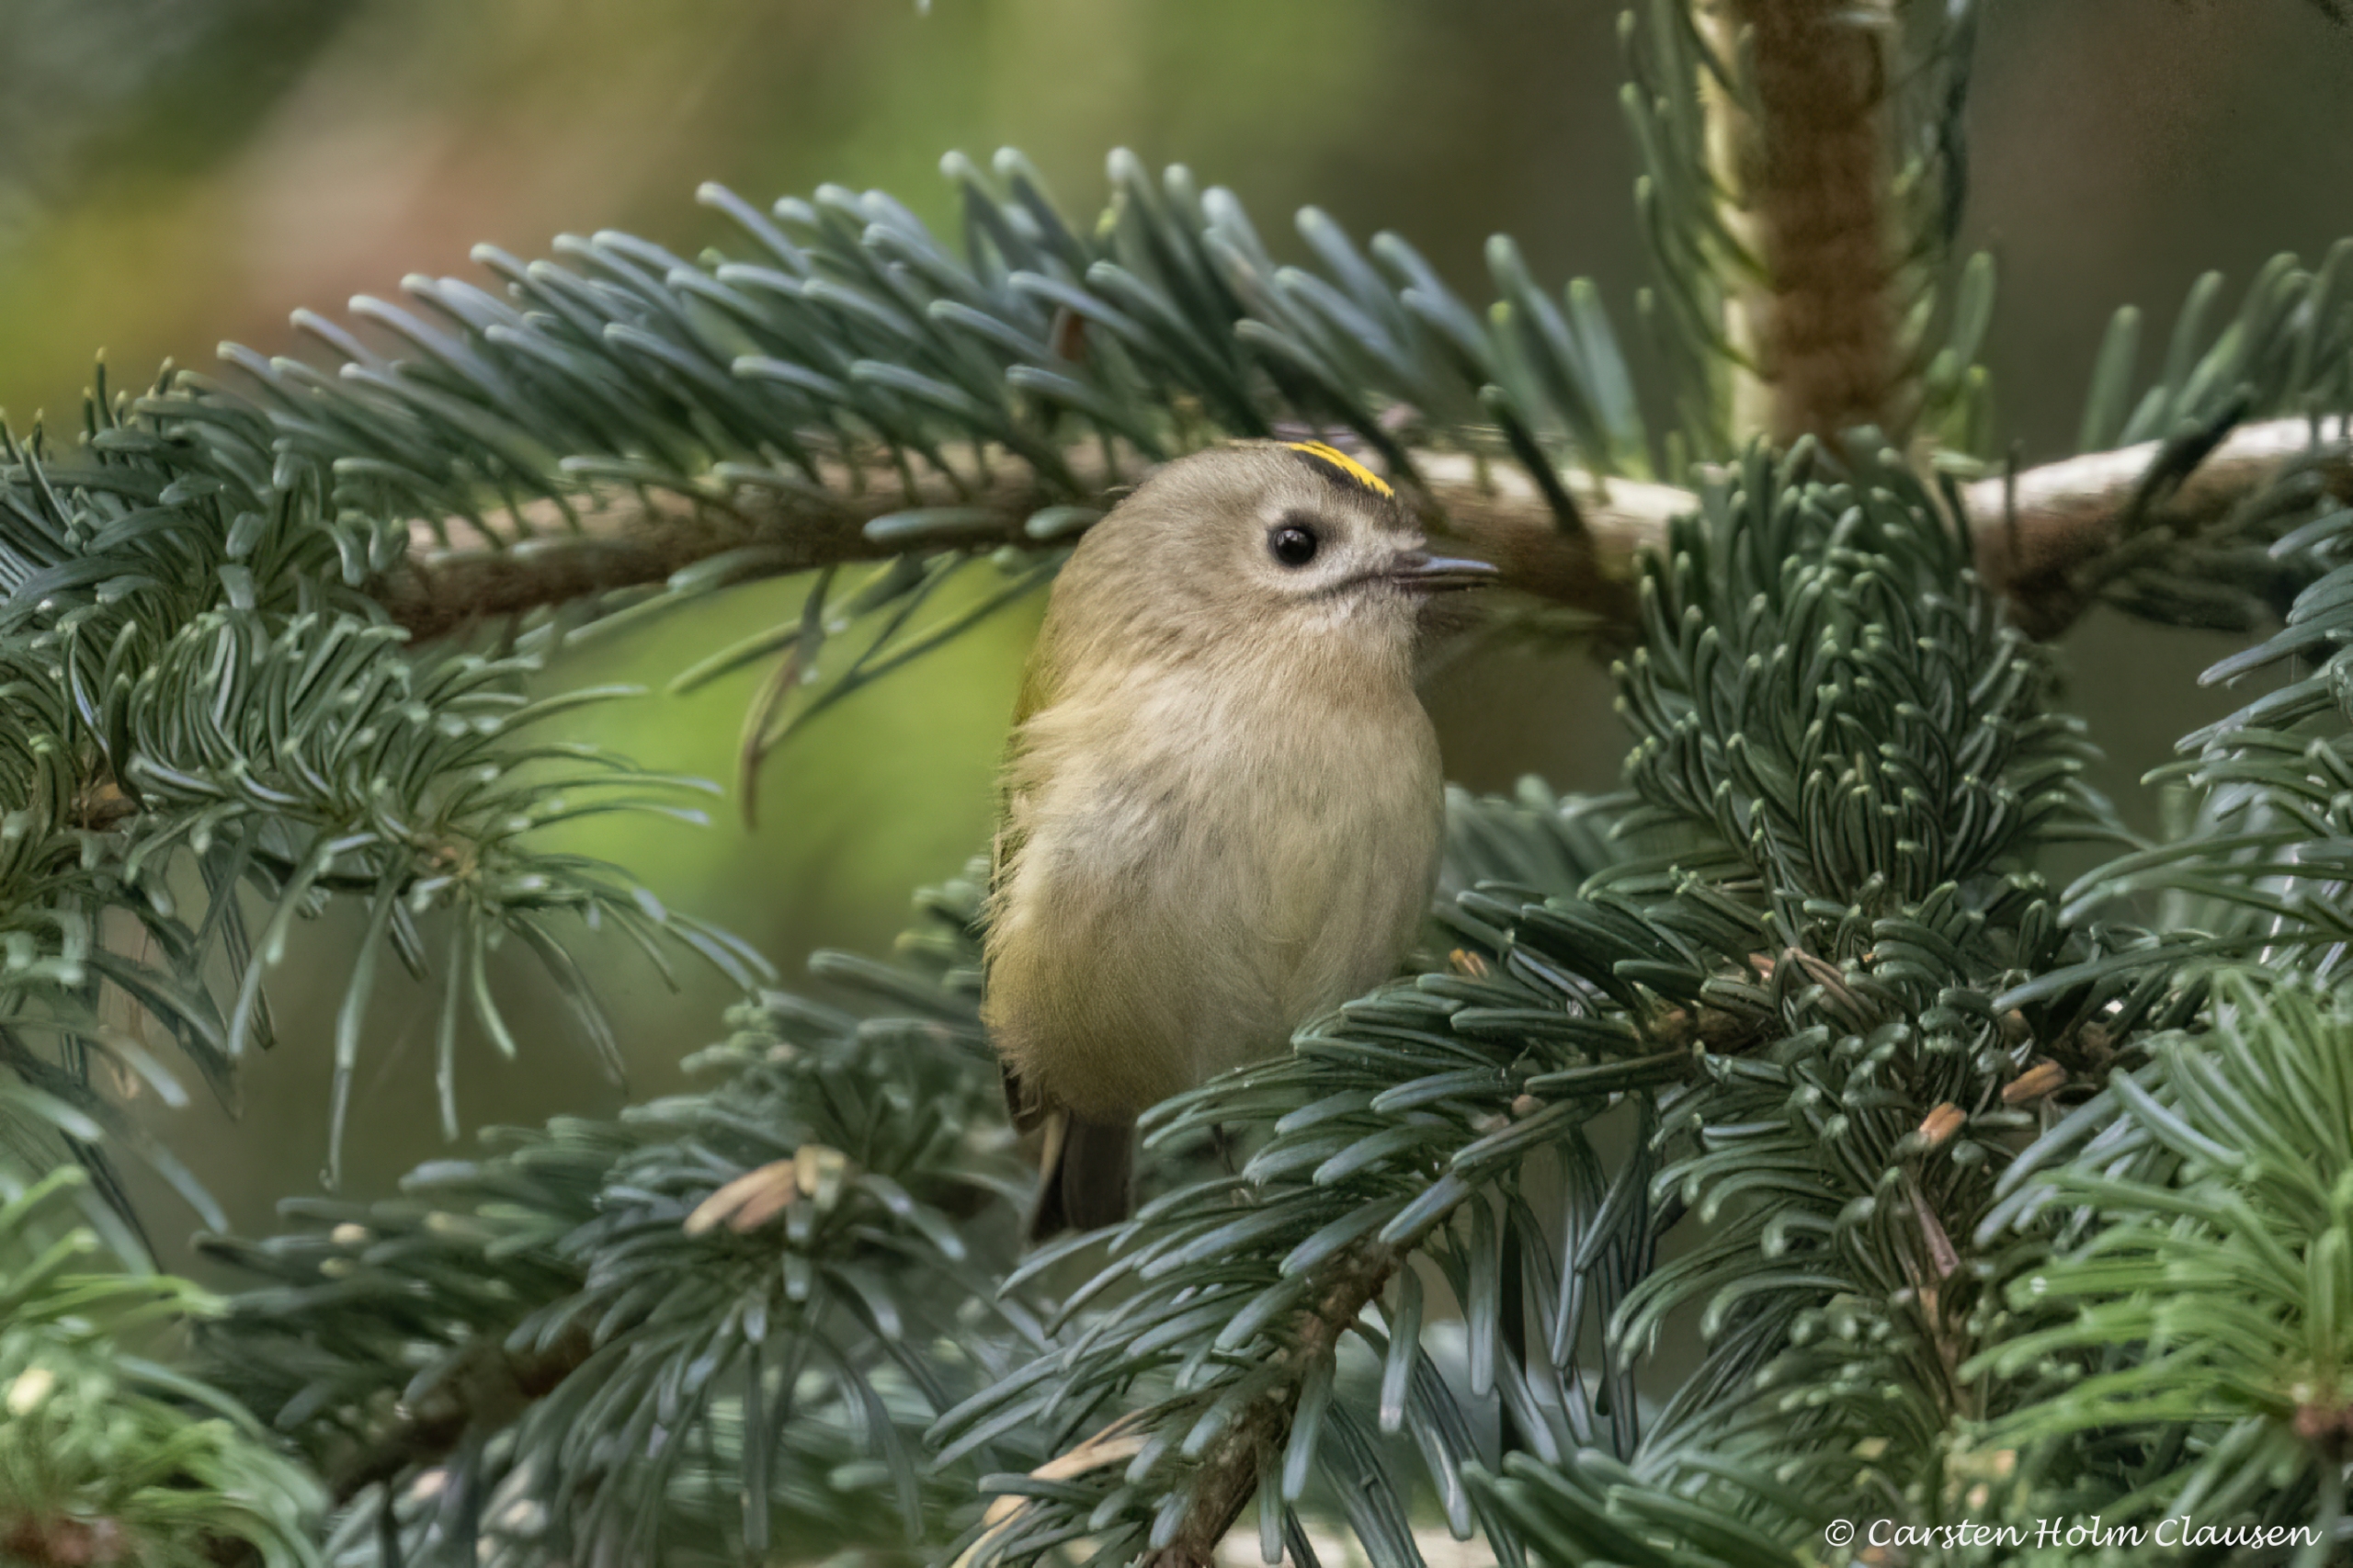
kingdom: Animalia
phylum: Chordata
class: Aves
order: Passeriformes
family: Regulidae
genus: Regulus
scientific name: Regulus regulus
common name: Fuglekonge
